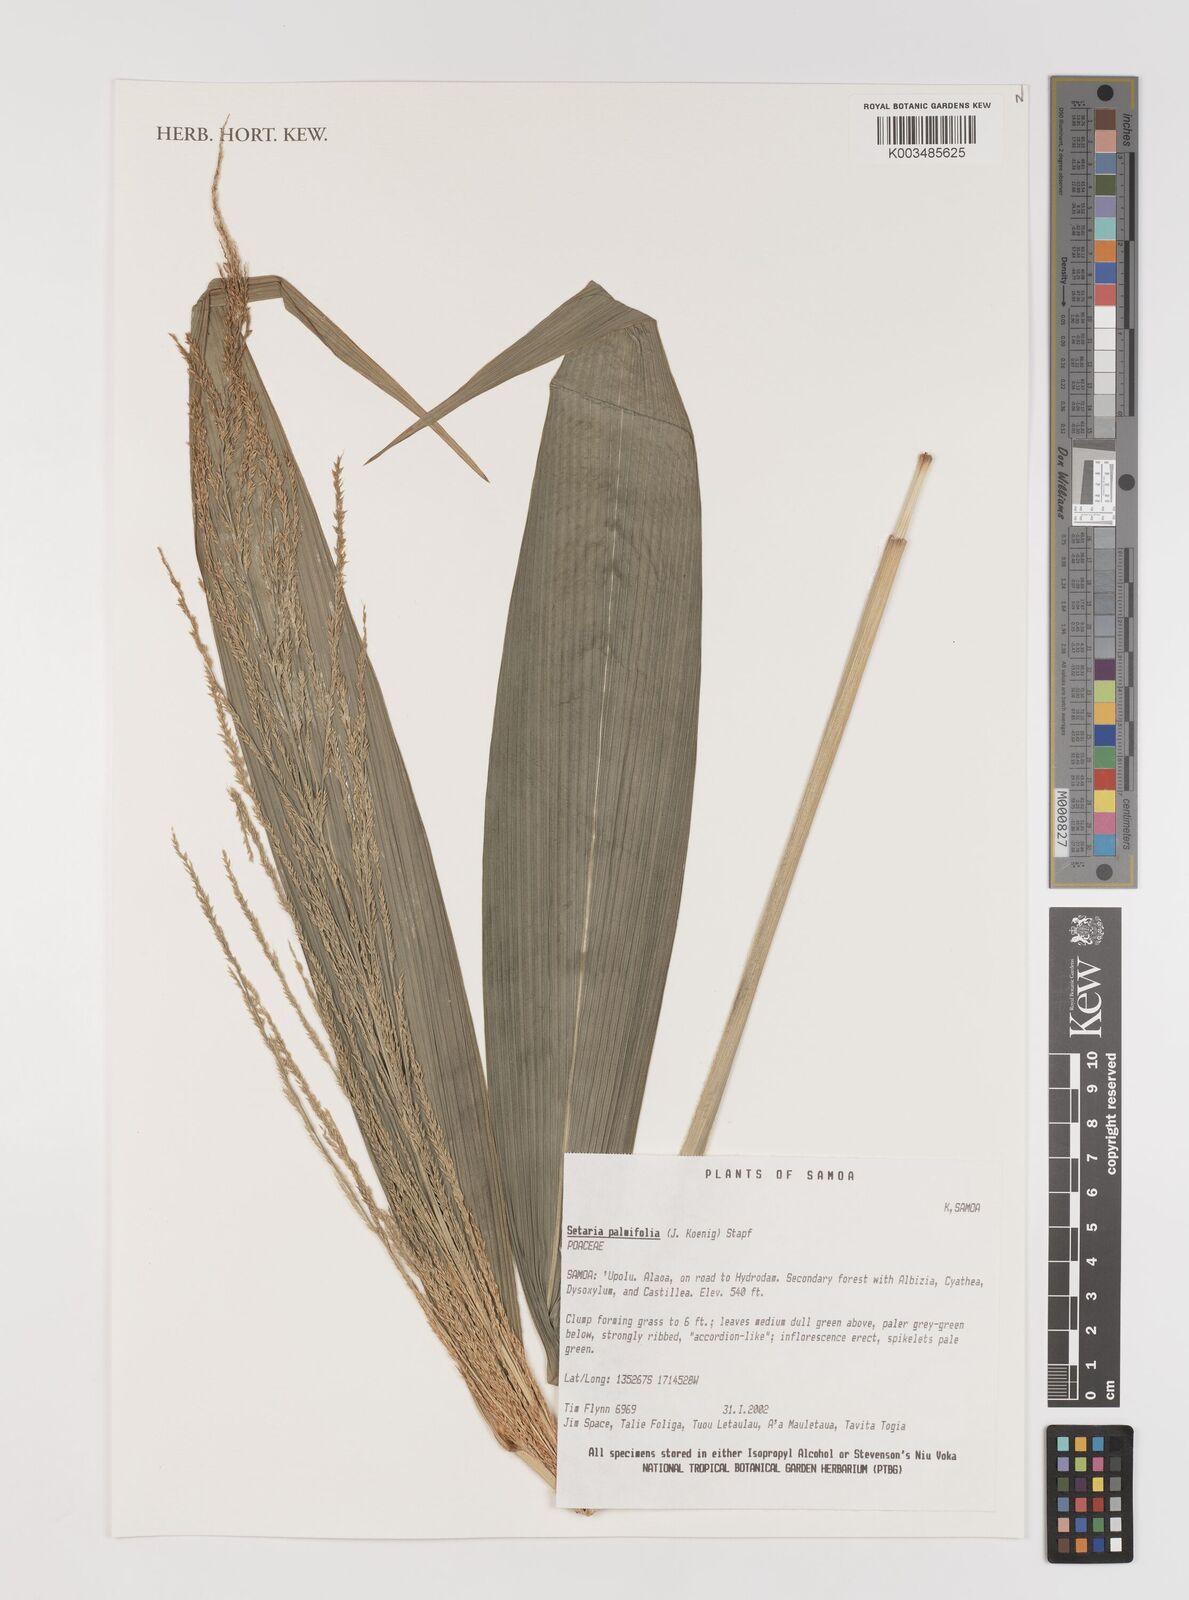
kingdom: Plantae
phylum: Tracheophyta
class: Liliopsida
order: Poales
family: Poaceae
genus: Setaria
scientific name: Setaria palmifolia
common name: Broadleaved bristlegrass
